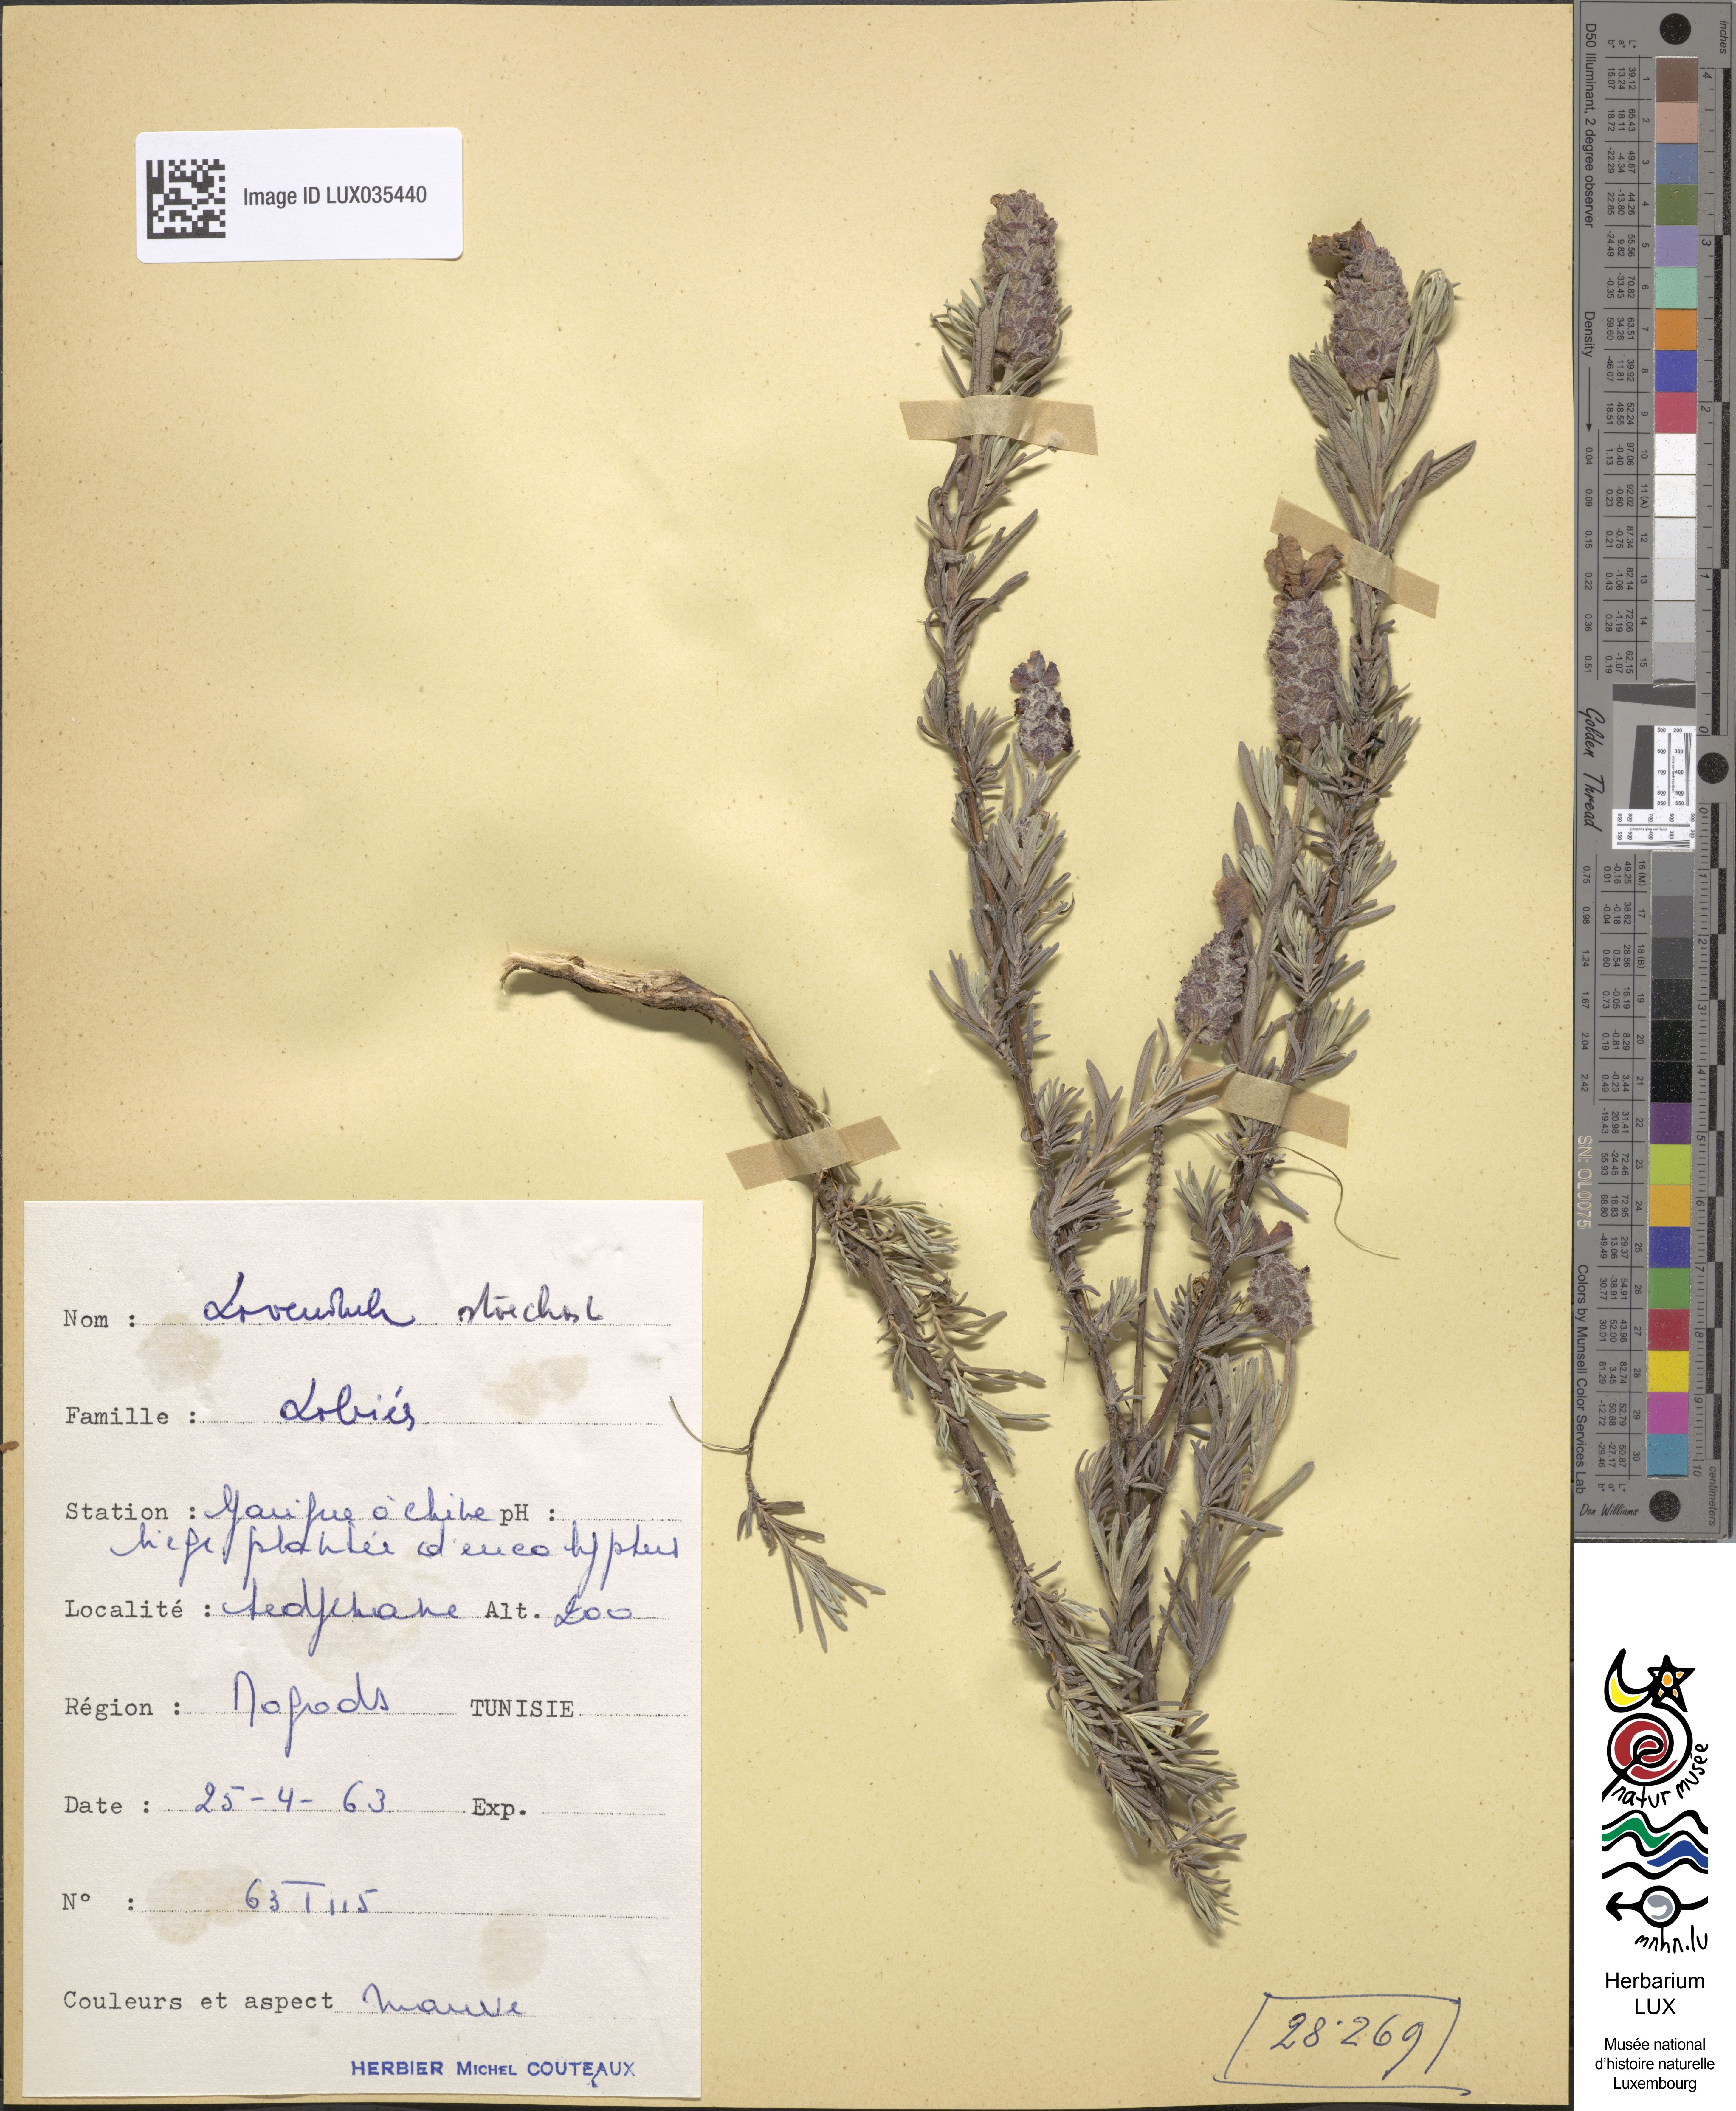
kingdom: Plantae
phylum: Tracheophyta
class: Magnoliopsida
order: Lamiales
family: Lamiaceae
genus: Lavandula
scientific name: Lavandula stoechas
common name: French lavender
